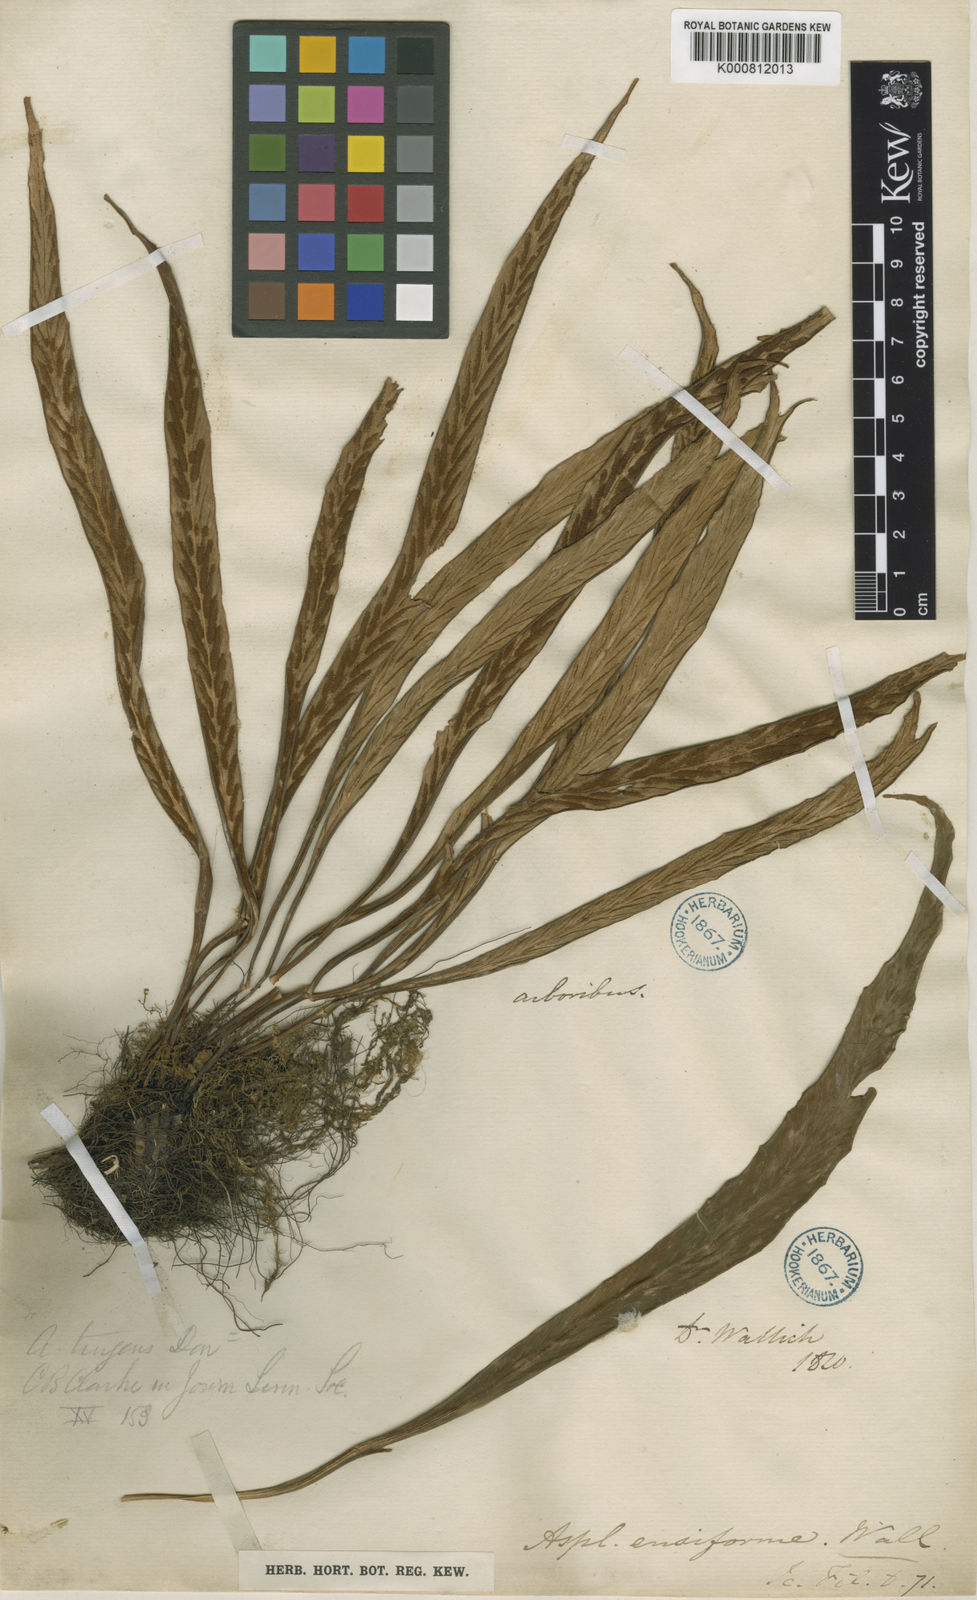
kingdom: Plantae
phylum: Tracheophyta
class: Polypodiopsida
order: Polypodiales
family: Aspleniaceae
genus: Asplenium
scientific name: Asplenium ensiforme
